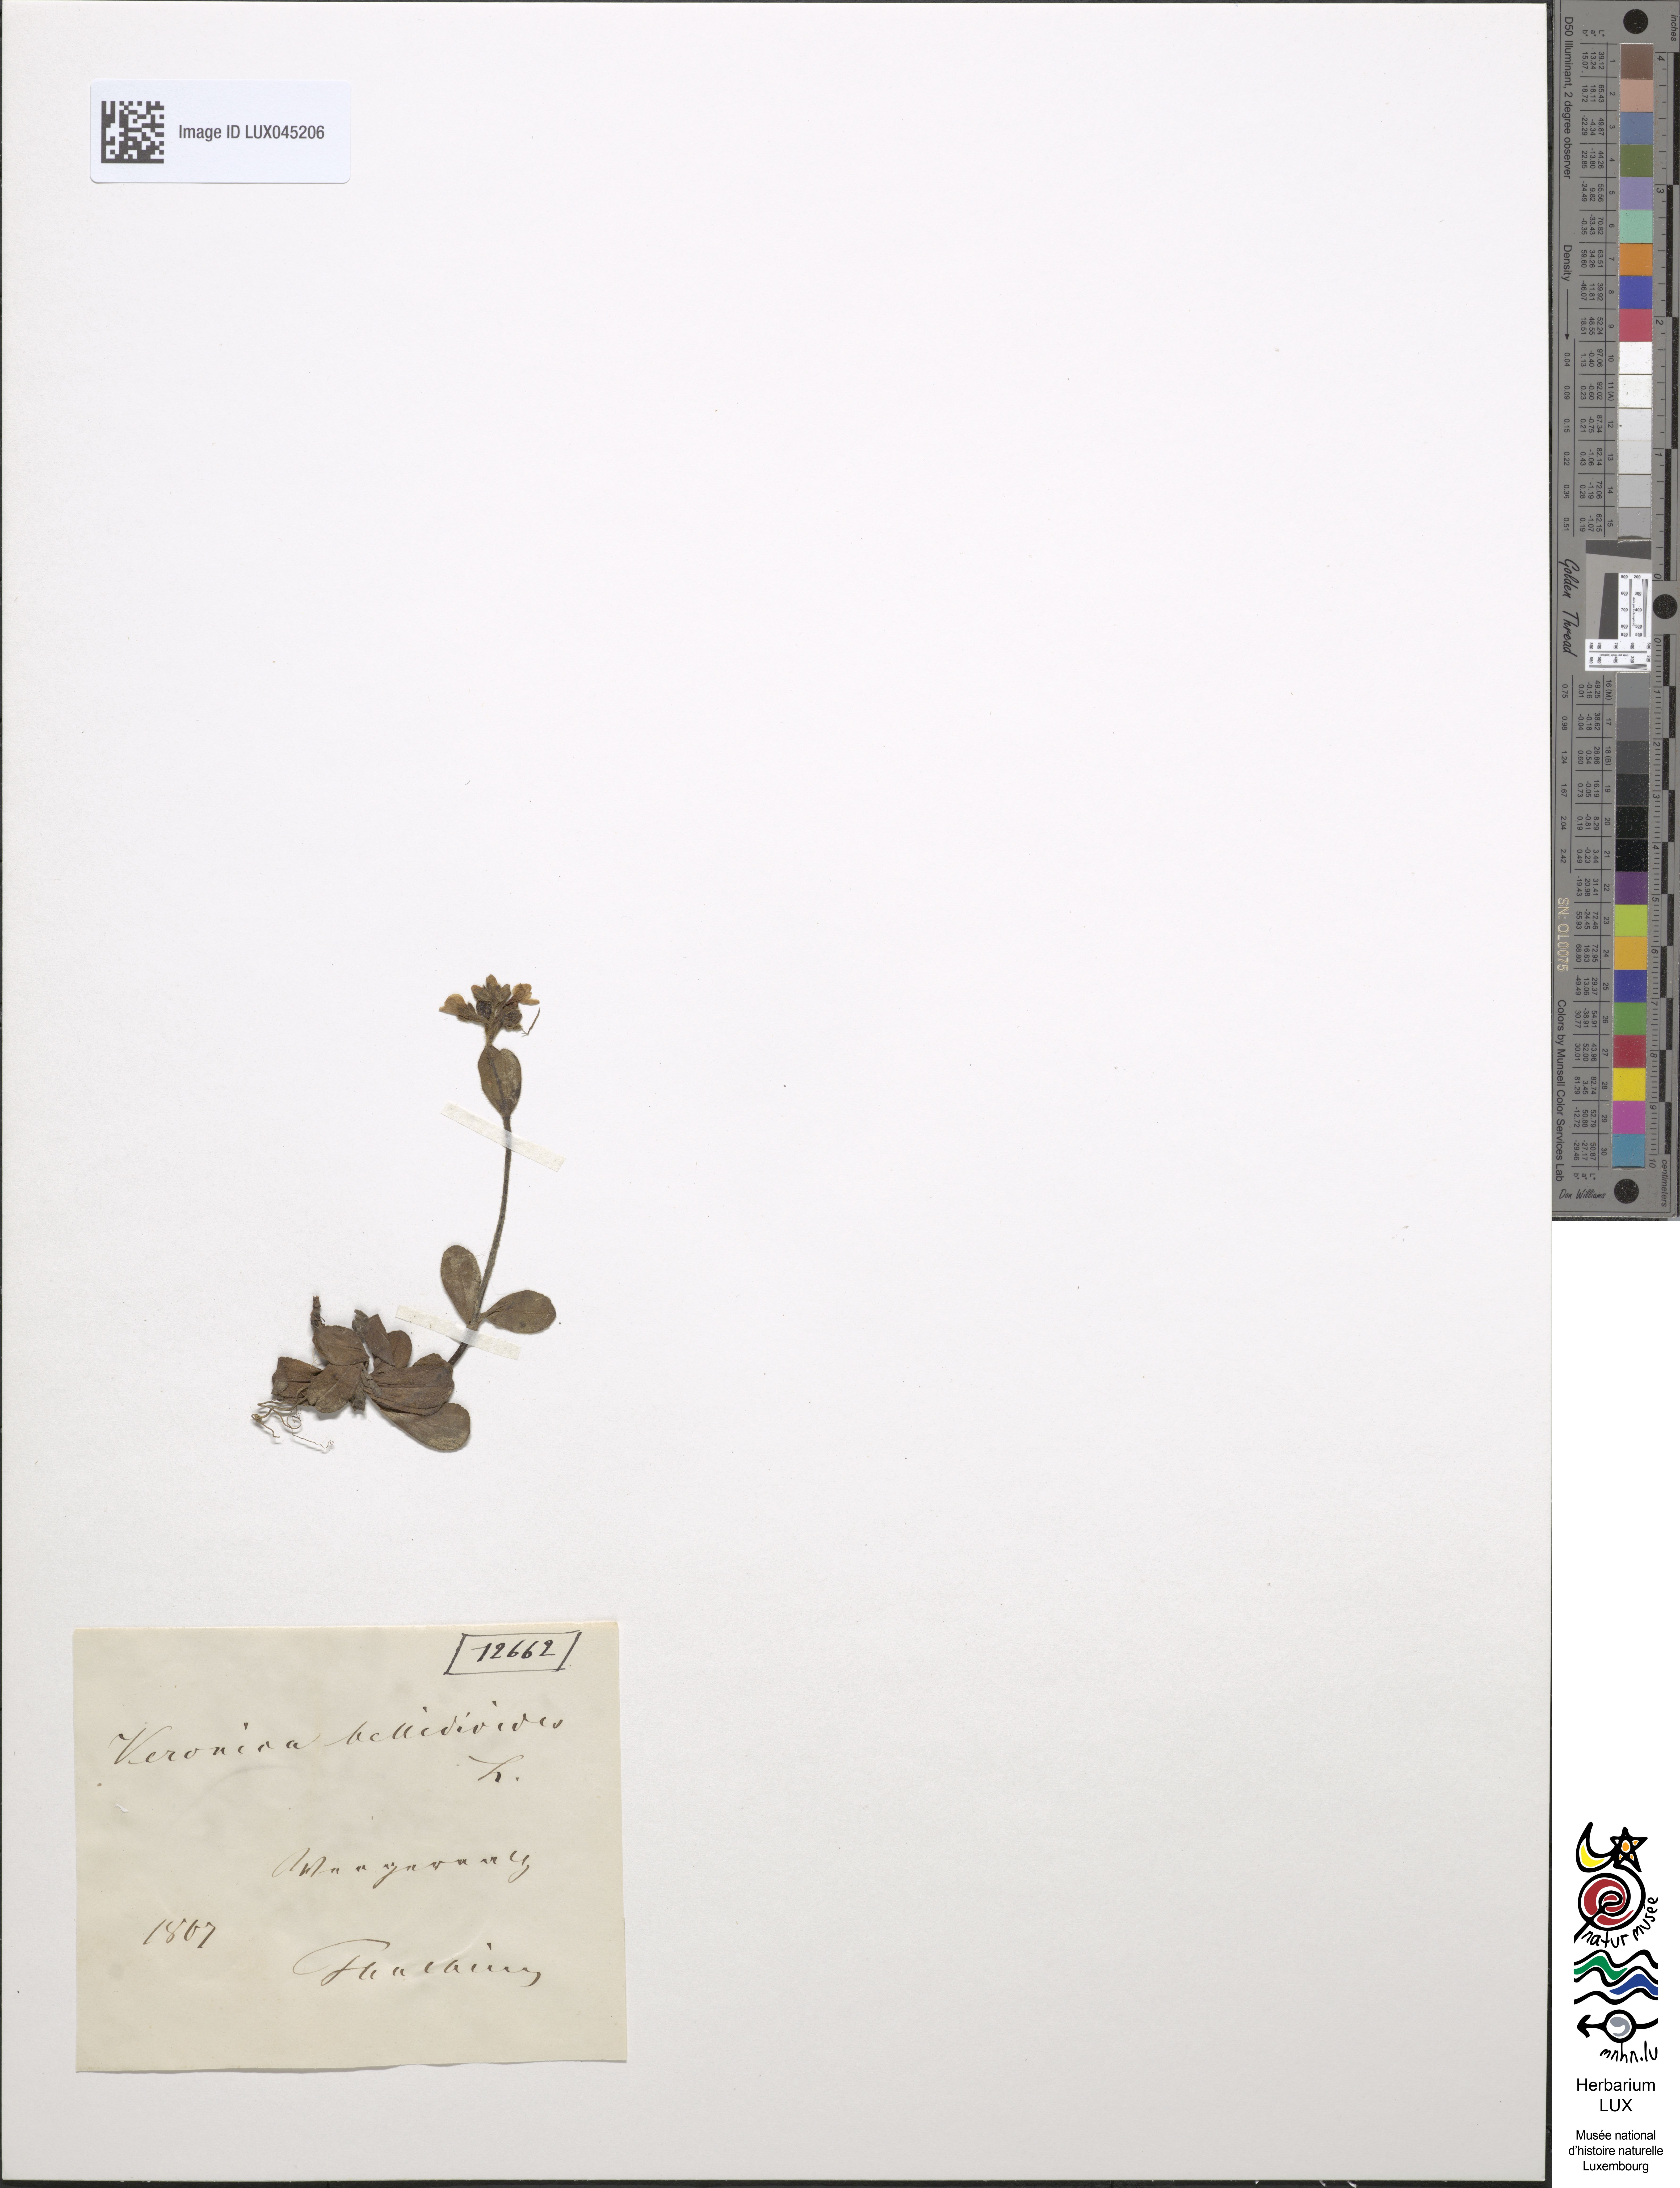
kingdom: Plantae
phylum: Tracheophyta
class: Magnoliopsida
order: Lamiales
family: Plantaginaceae
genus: Veronica
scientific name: Veronica bellidioides
